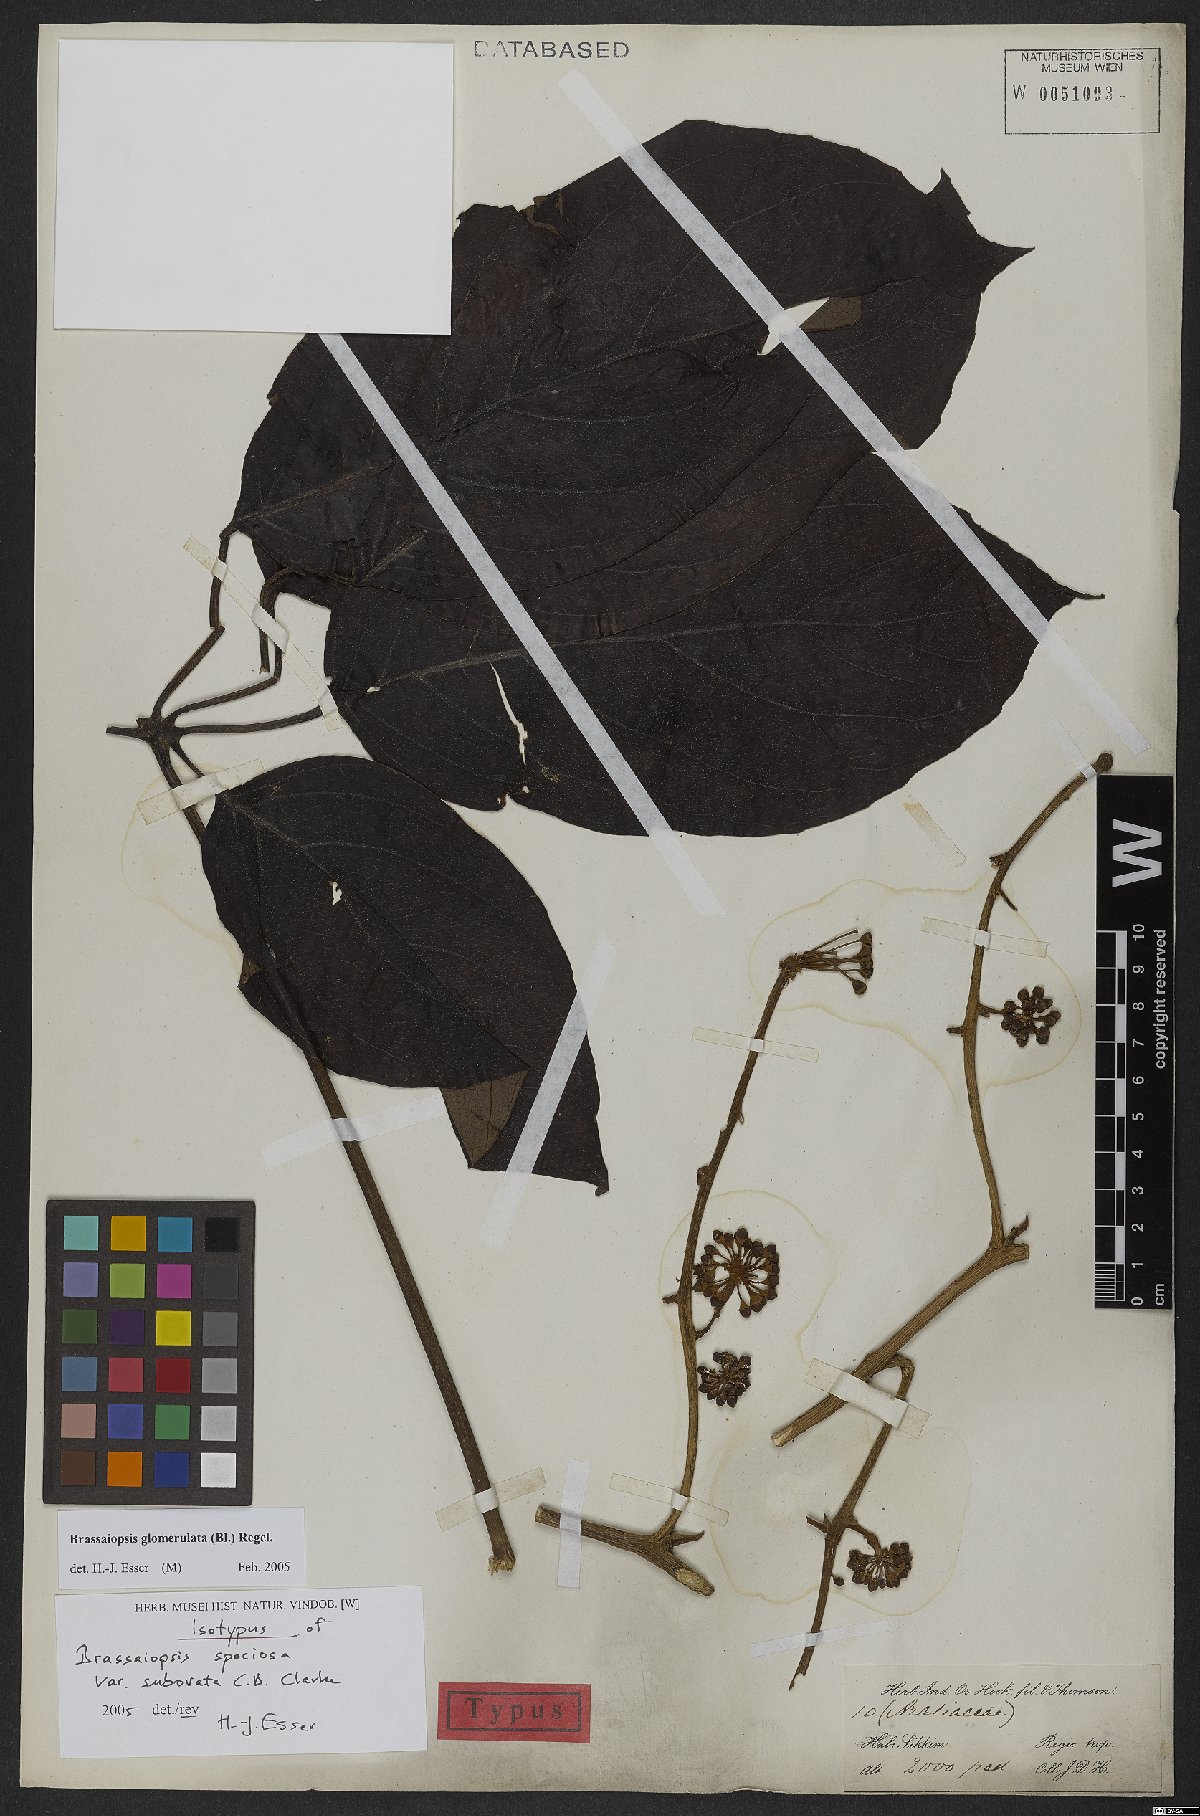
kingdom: Plantae
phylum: Tracheophyta
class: Magnoliopsida
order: Apiales
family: Araliaceae
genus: Brassaiopsis
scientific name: Brassaiopsis glomerulata
